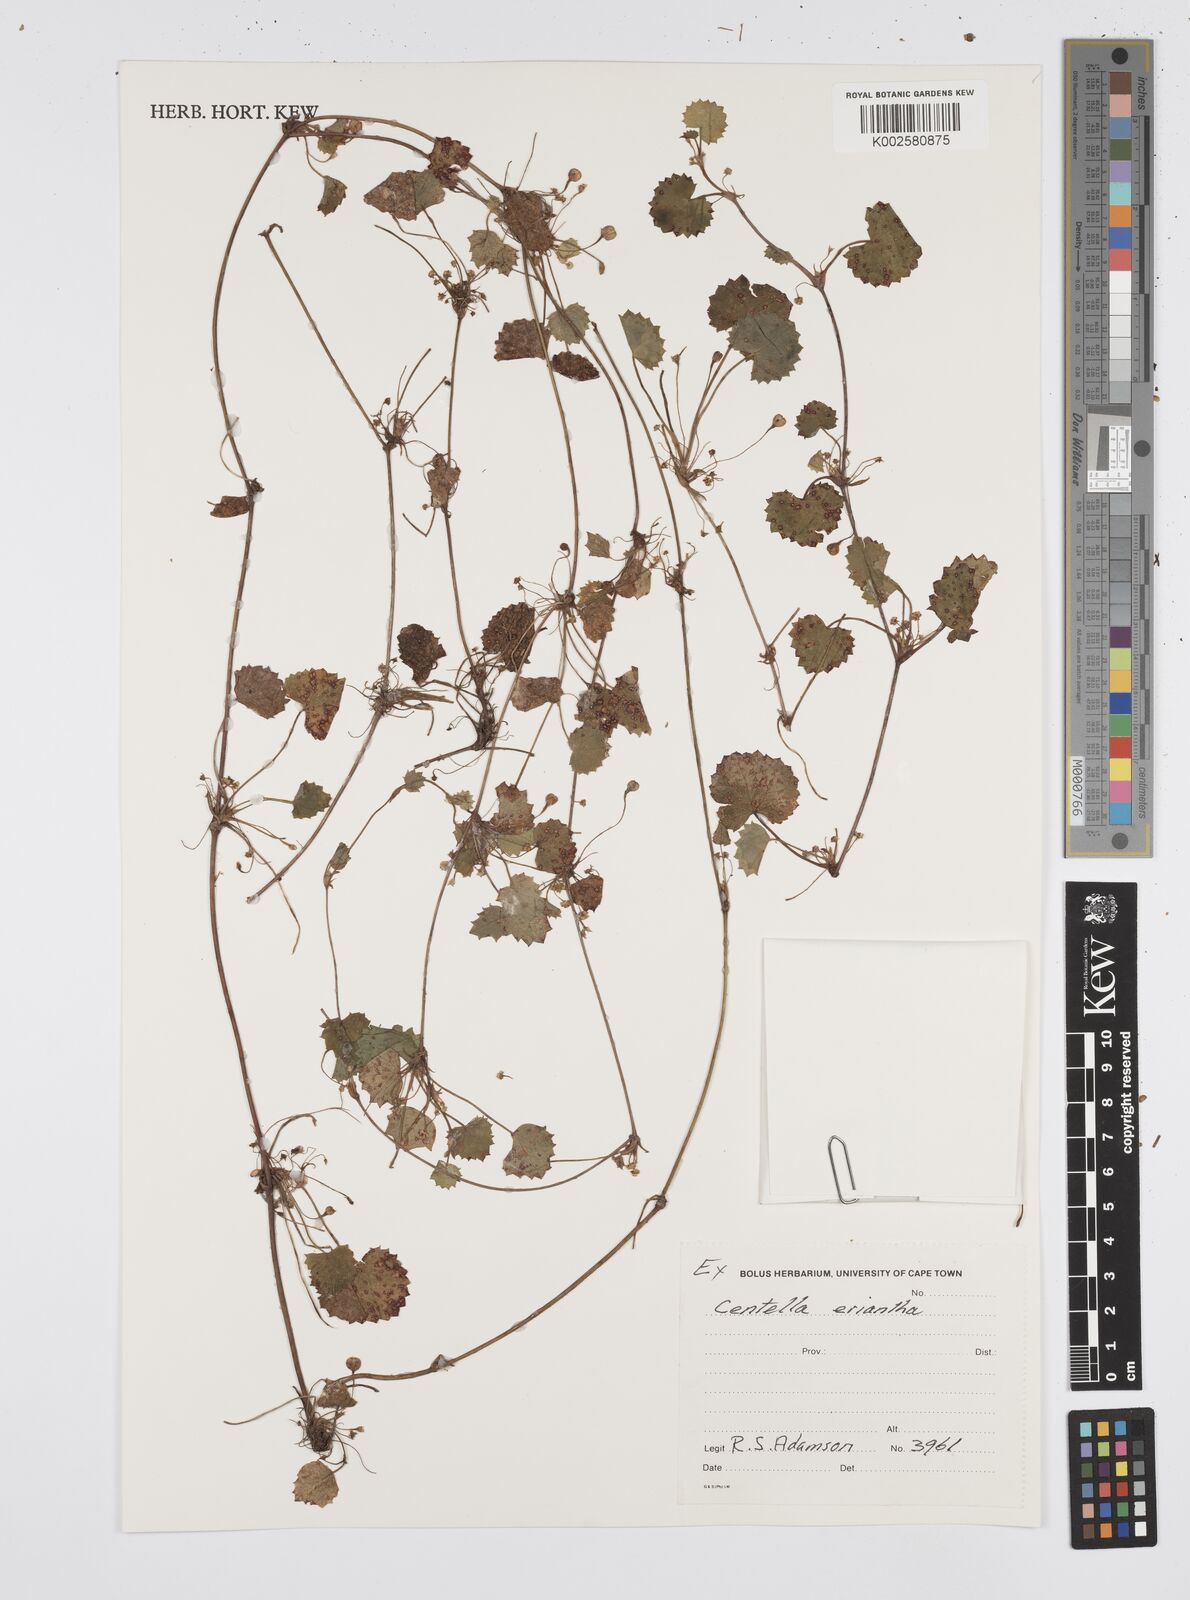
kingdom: Plantae
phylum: Tracheophyta
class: Magnoliopsida
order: Apiales
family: Apiaceae
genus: Centella
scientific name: Centella eriantha
